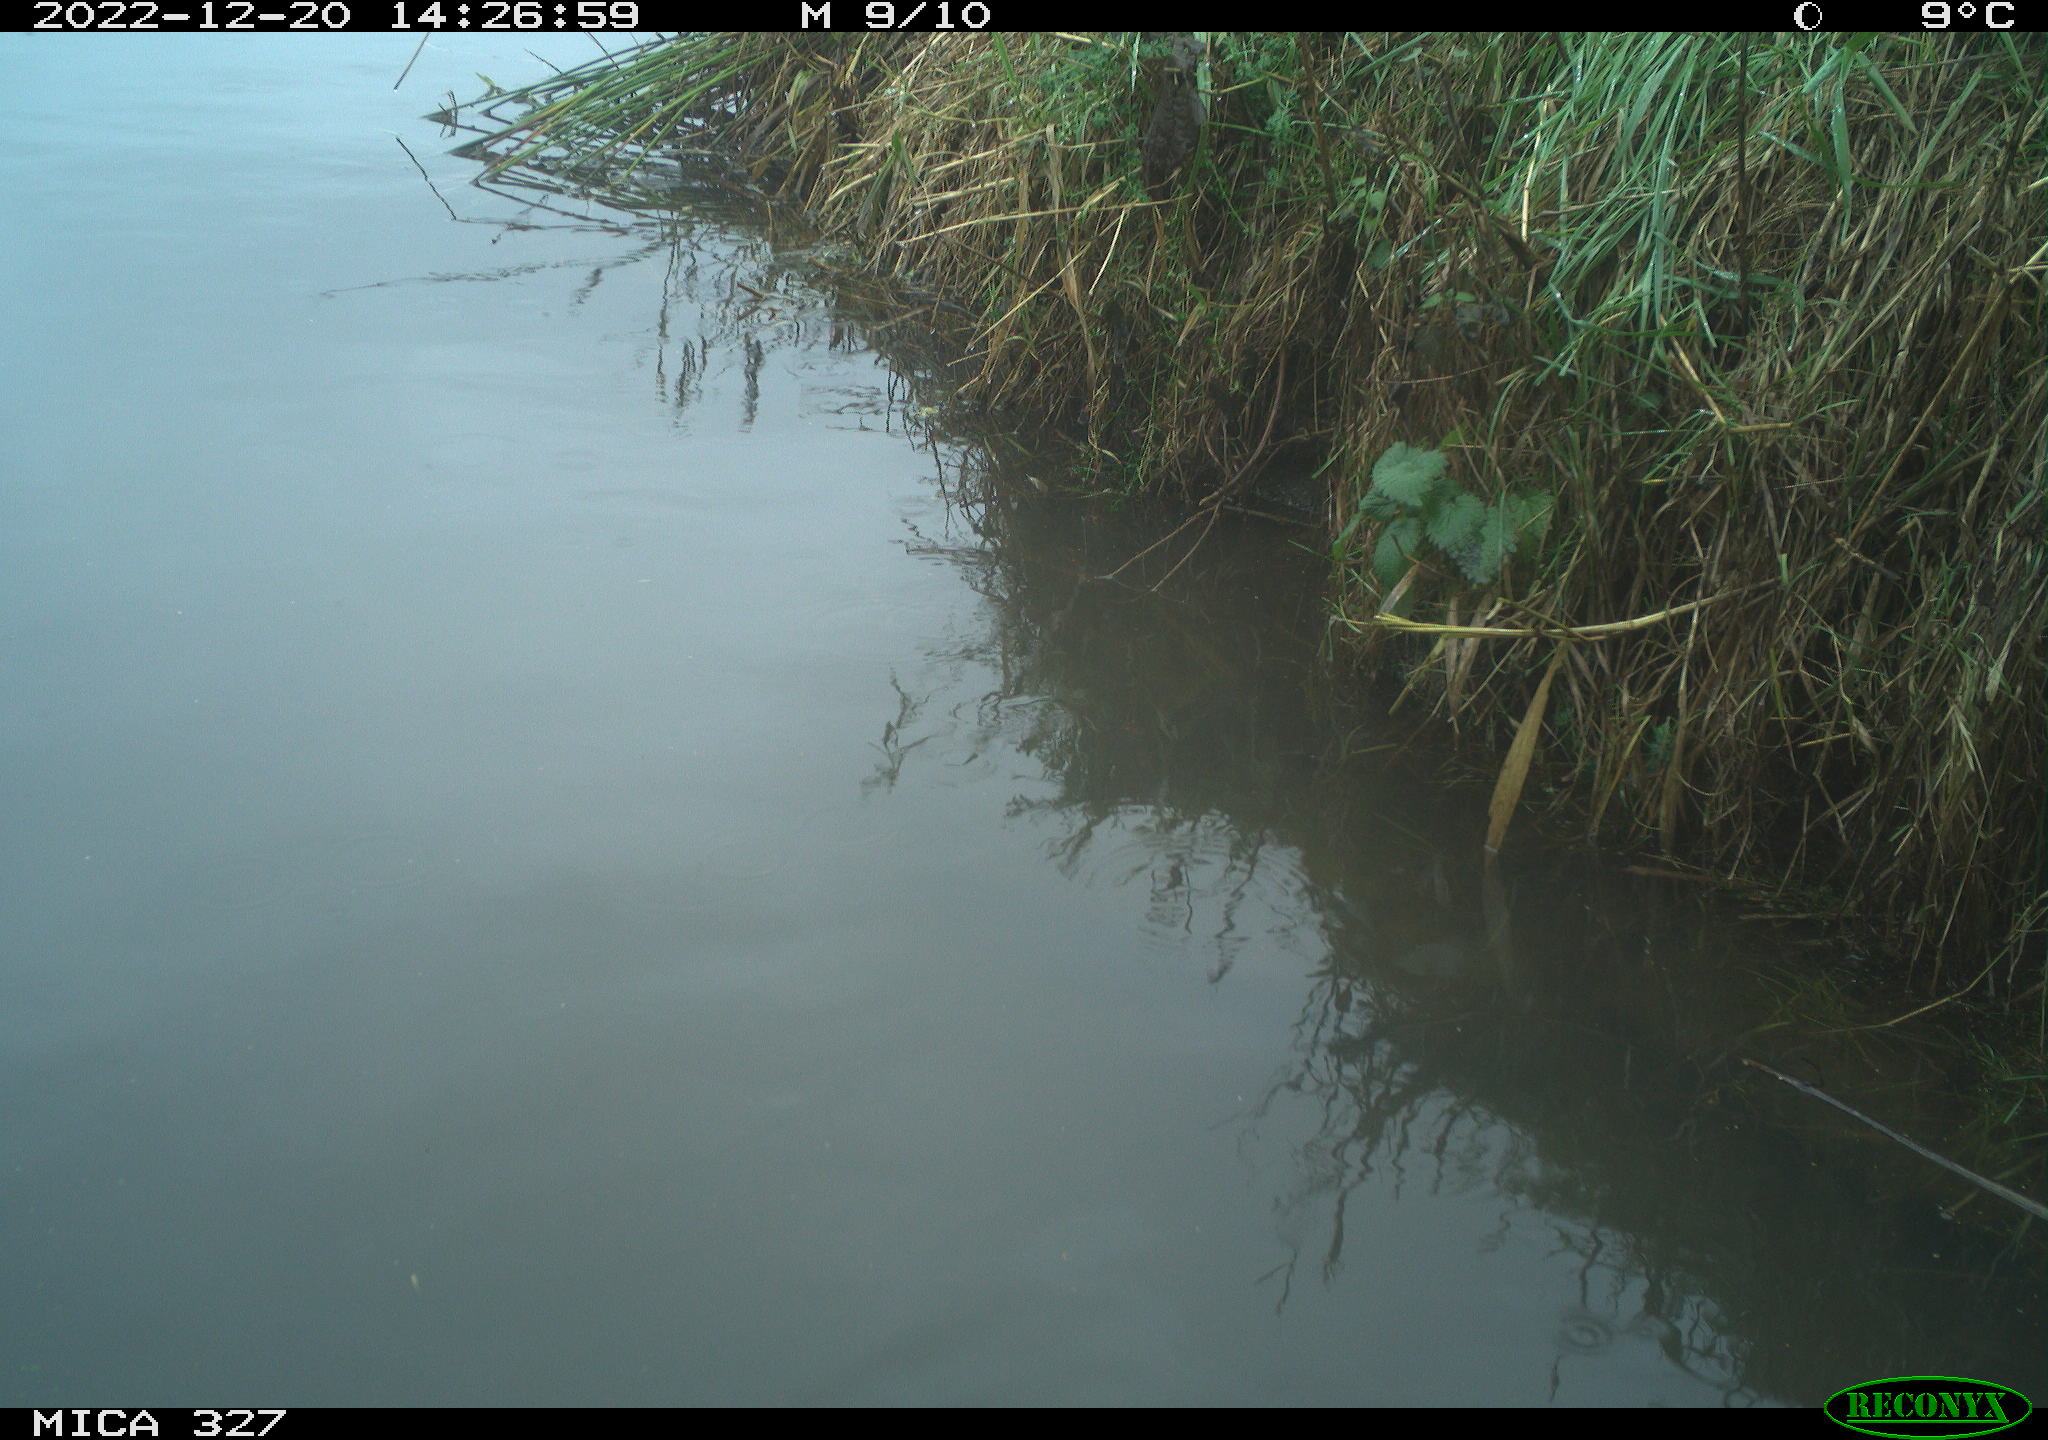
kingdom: Animalia
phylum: Chordata
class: Aves
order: Gruiformes
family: Rallidae
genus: Gallinula
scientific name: Gallinula chloropus
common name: Common moorhen
